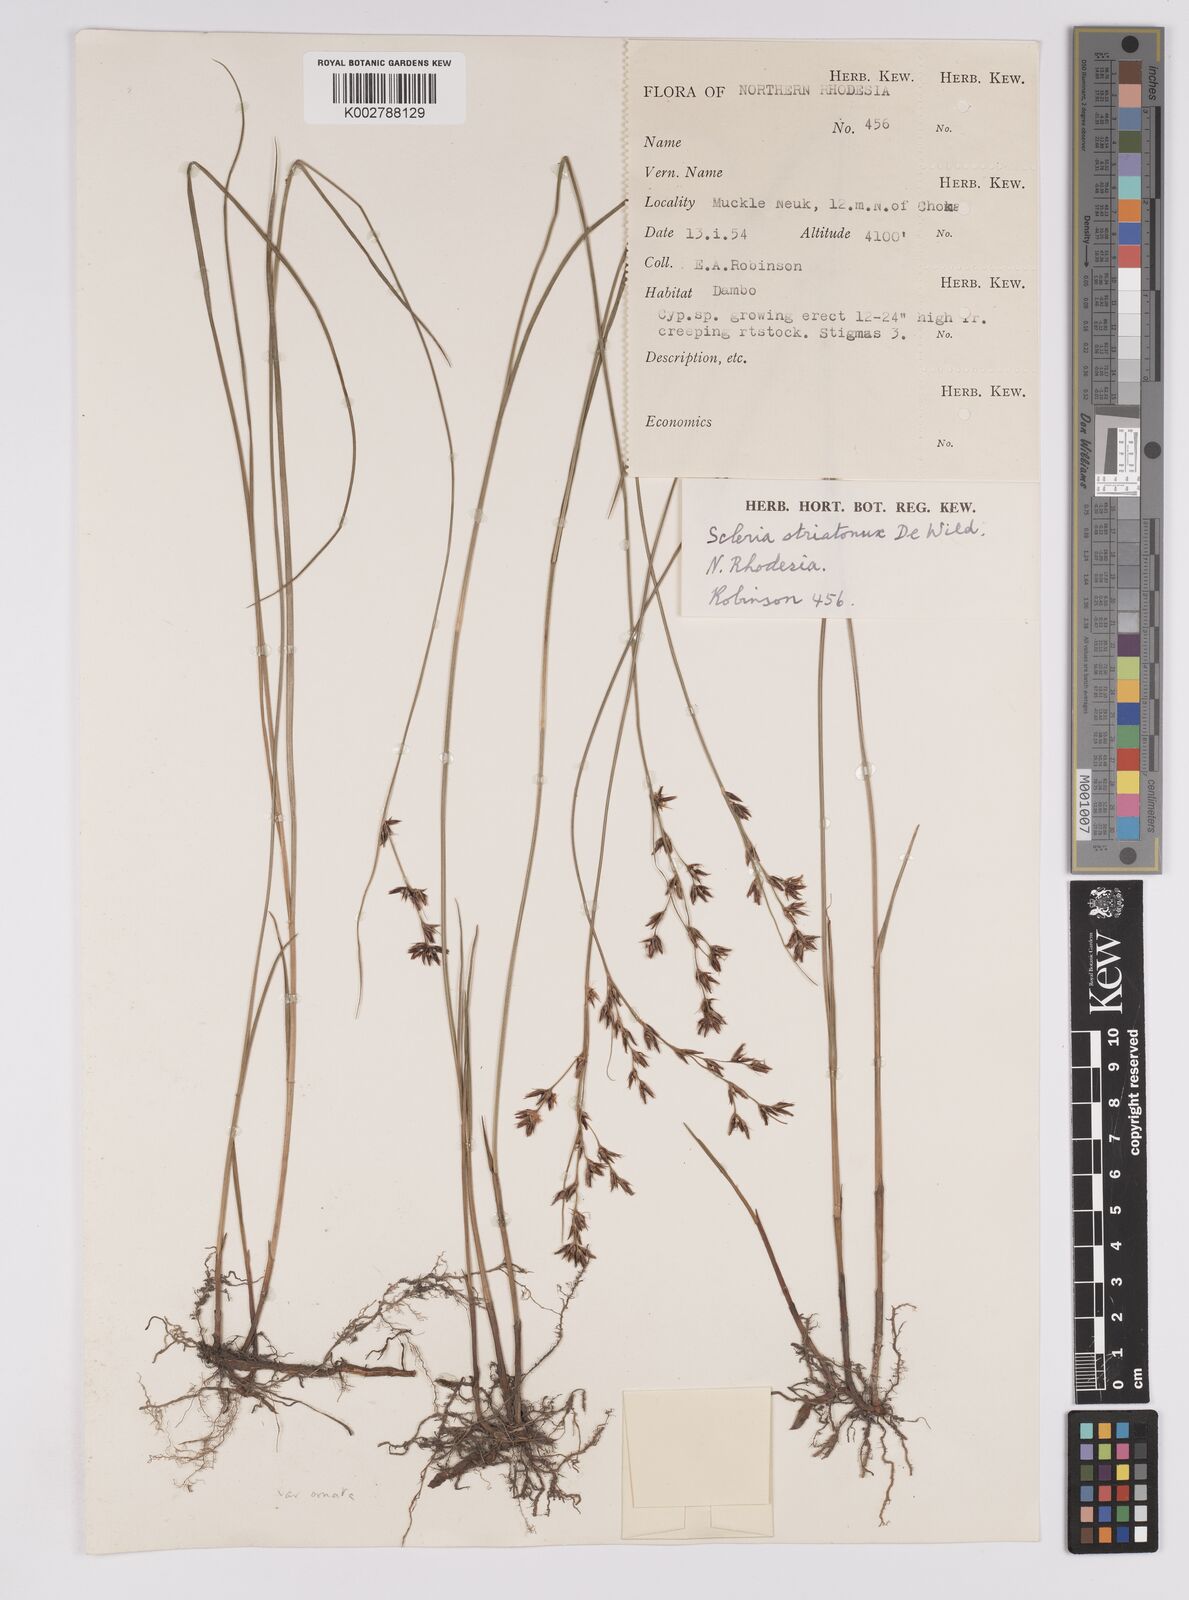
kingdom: Plantae
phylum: Tracheophyta
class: Liliopsida
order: Poales
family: Cyperaceae
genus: Scleria
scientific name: Scleria woodii
